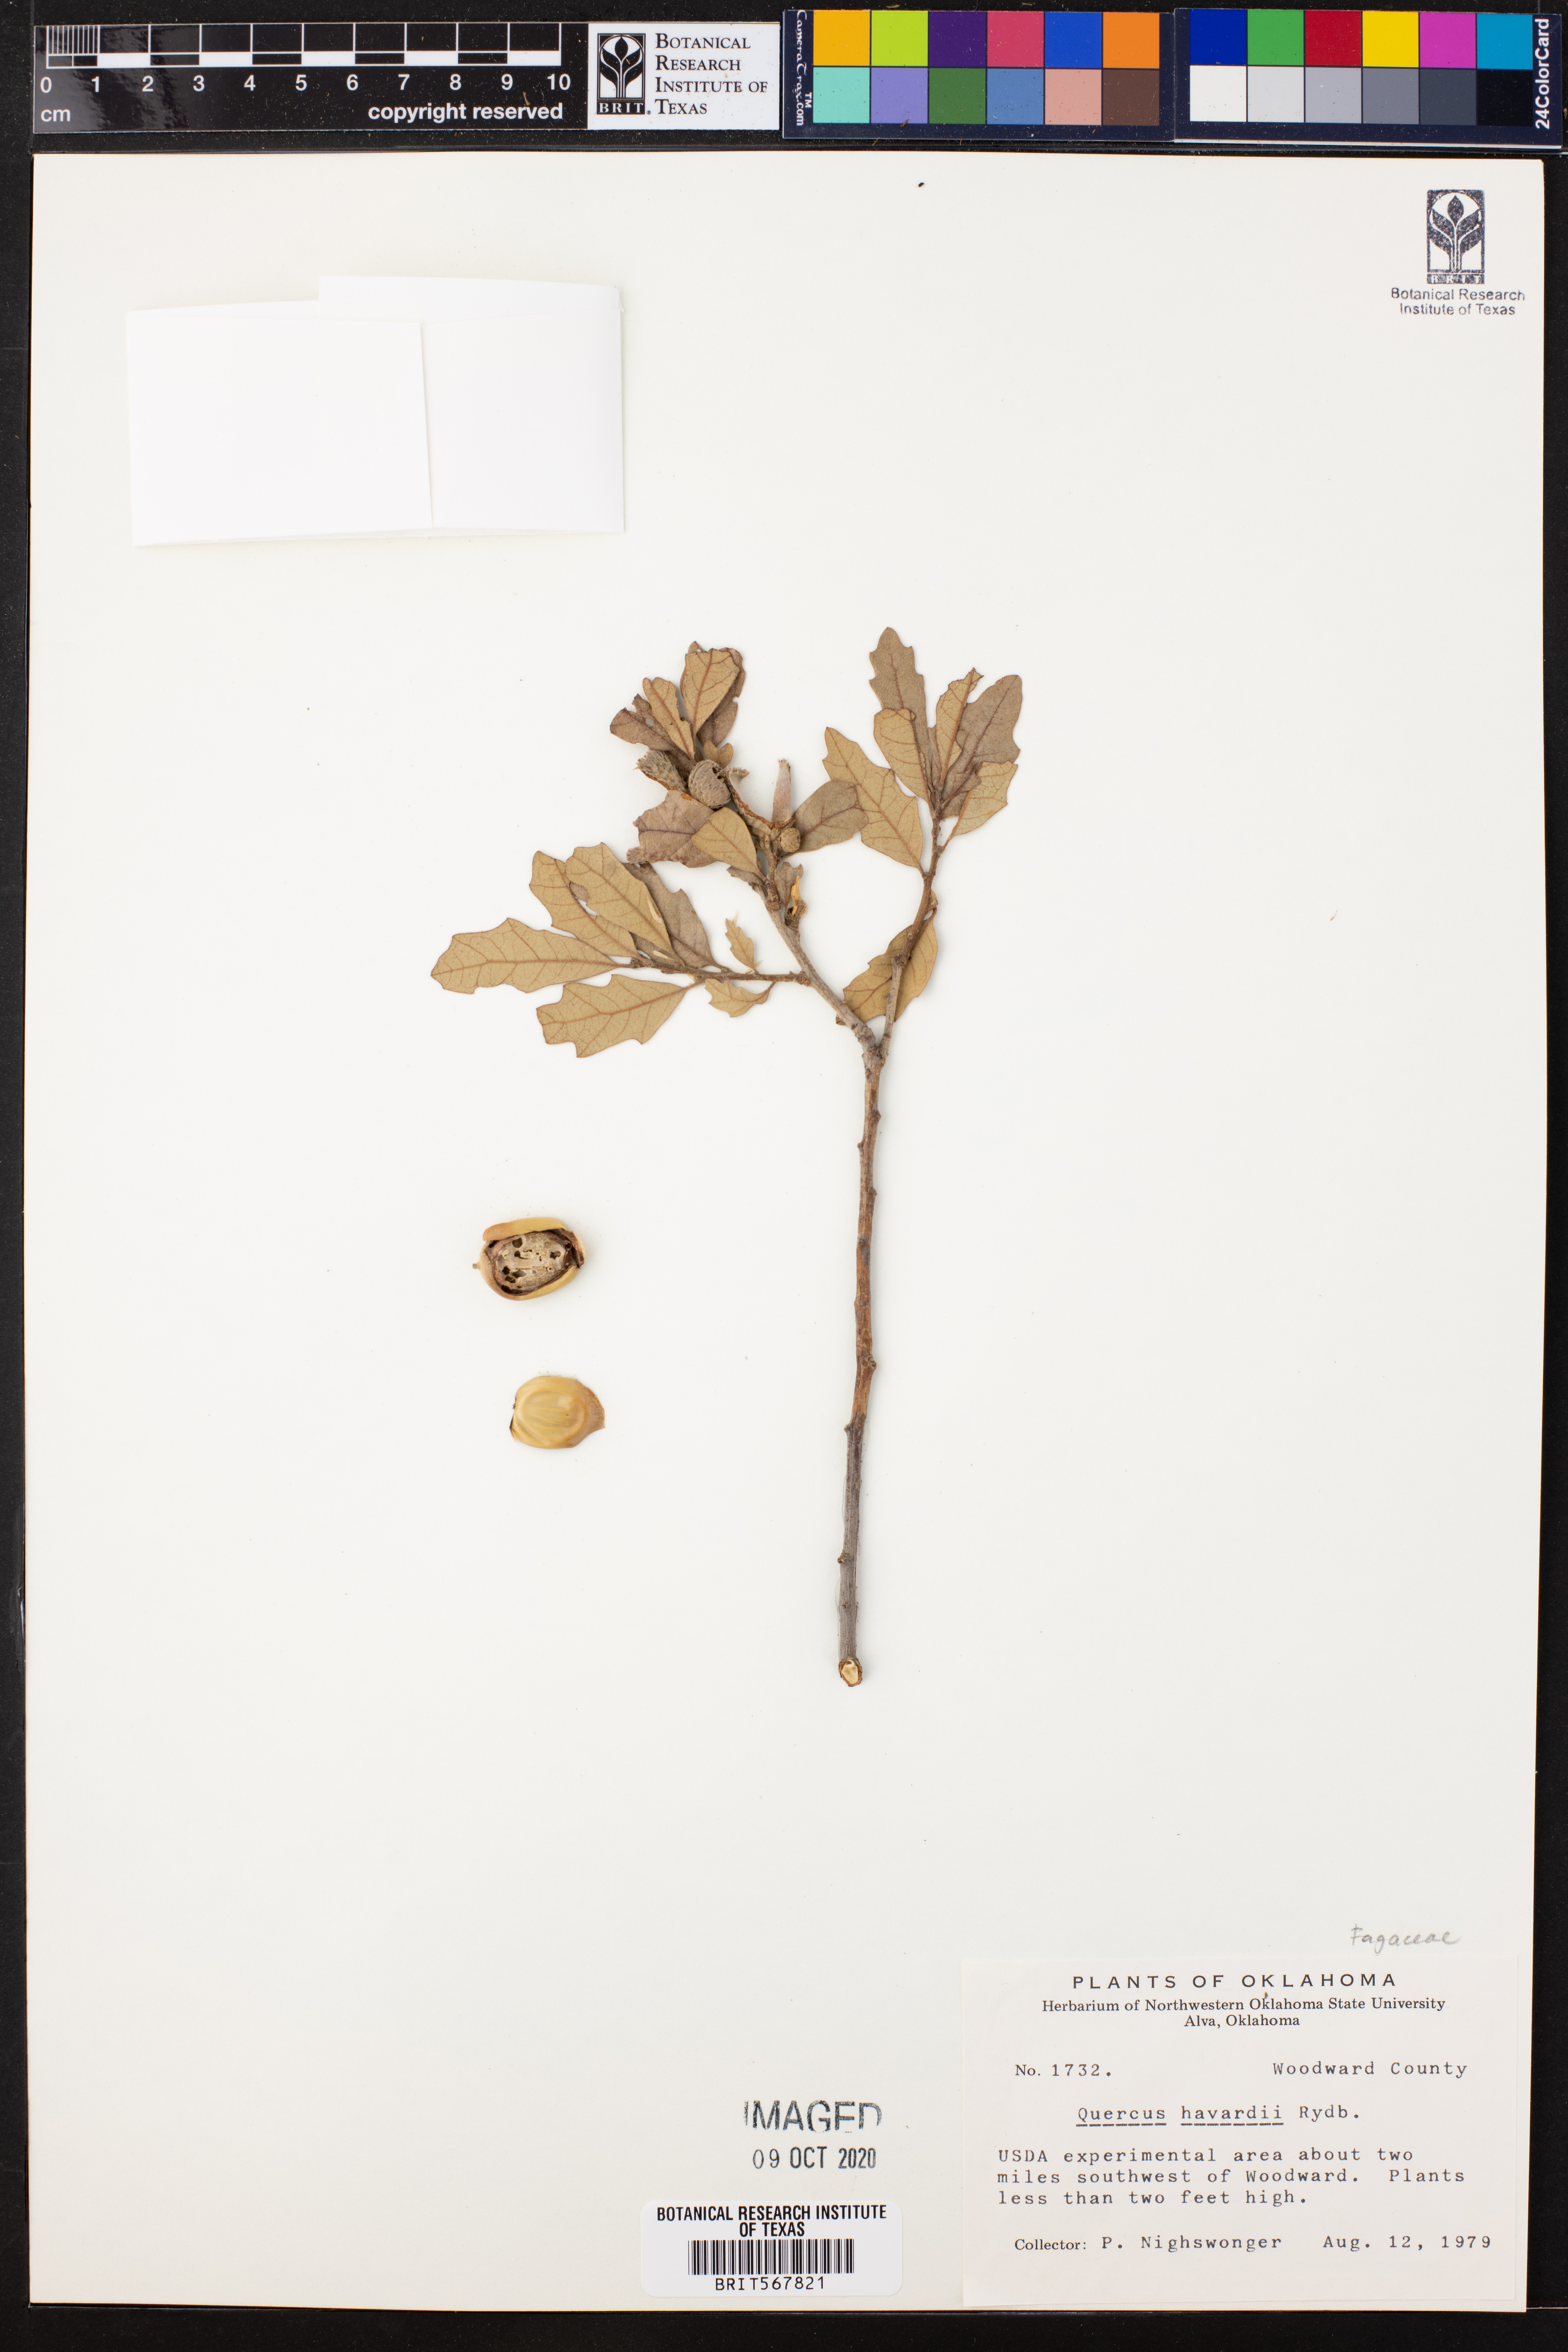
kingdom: Plantae
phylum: Tracheophyta
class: Magnoliopsida
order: Fagales
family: Fagaceae
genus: Quercus
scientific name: Quercus havardii
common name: Shinnery oak
